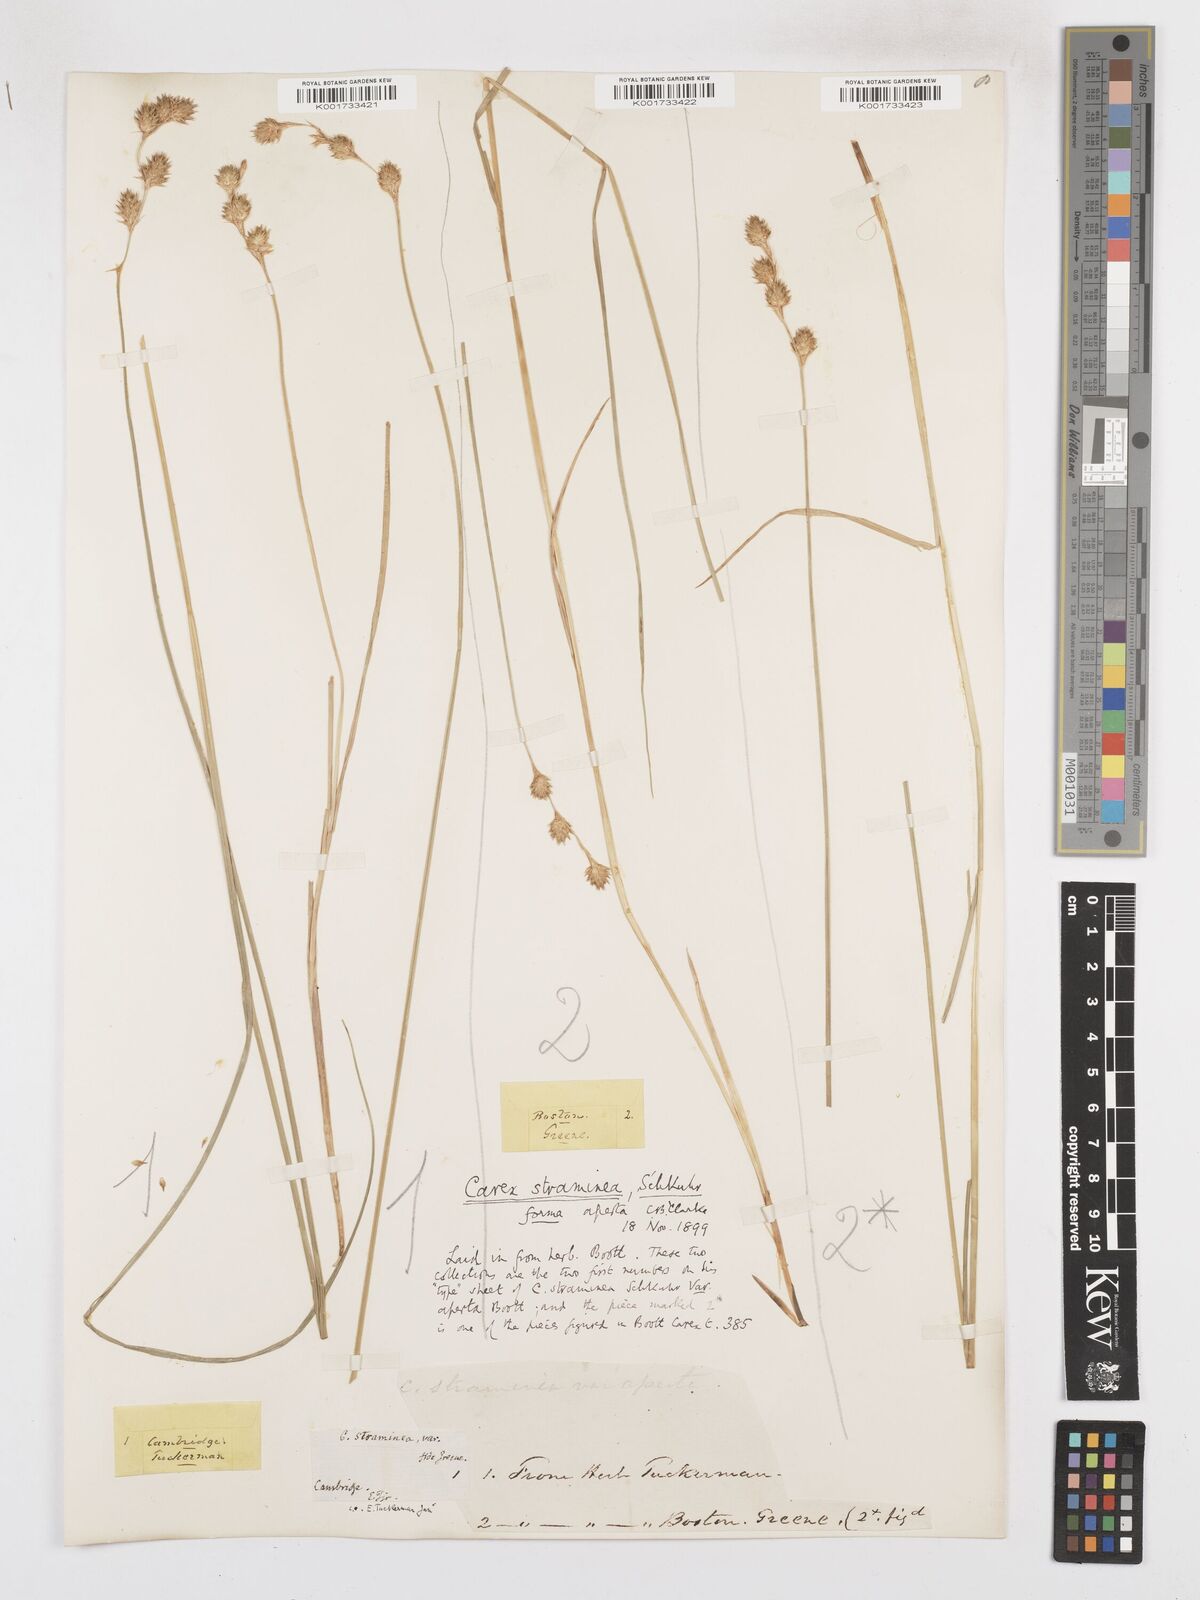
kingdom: Plantae
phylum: Tracheophyta
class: Liliopsida
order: Poales
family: Cyperaceae
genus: Carex
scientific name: Carex straminea
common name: Eastern straw sedge
